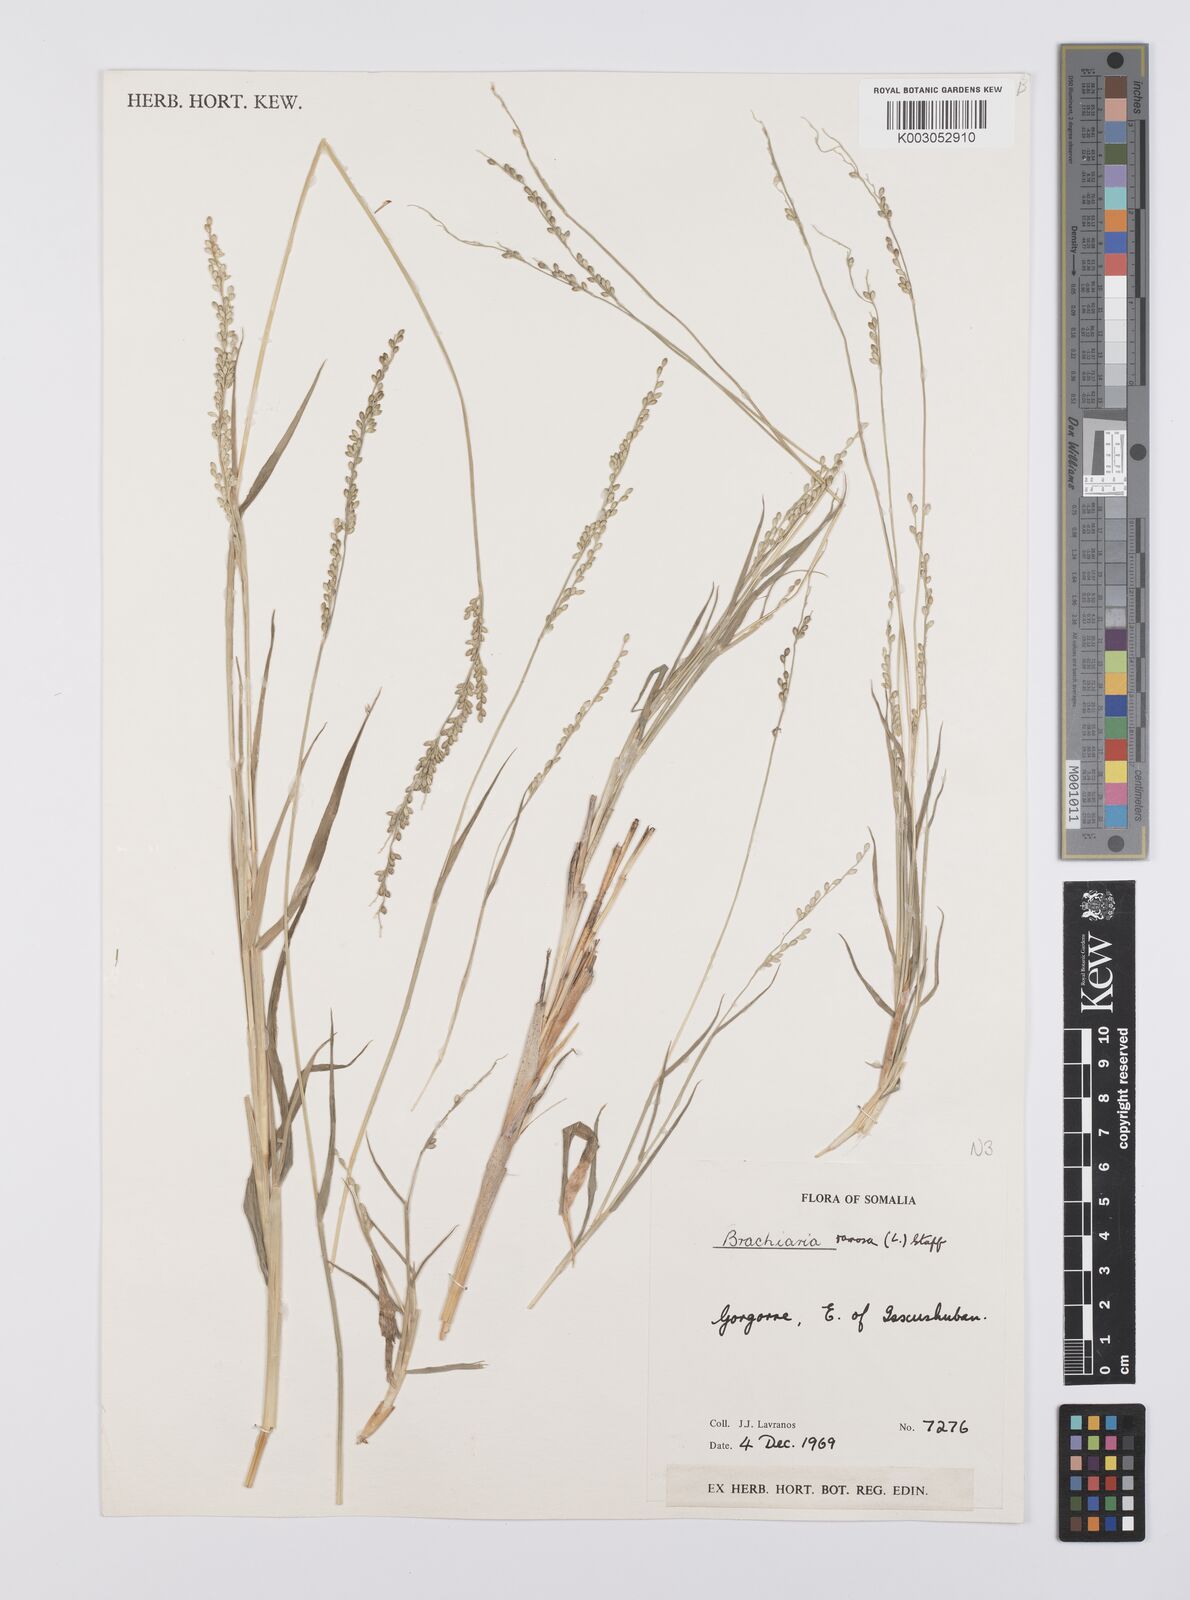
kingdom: Plantae
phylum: Tracheophyta
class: Liliopsida
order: Poales
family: Poaceae
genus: Urochloa
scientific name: Urochloa ovalis
